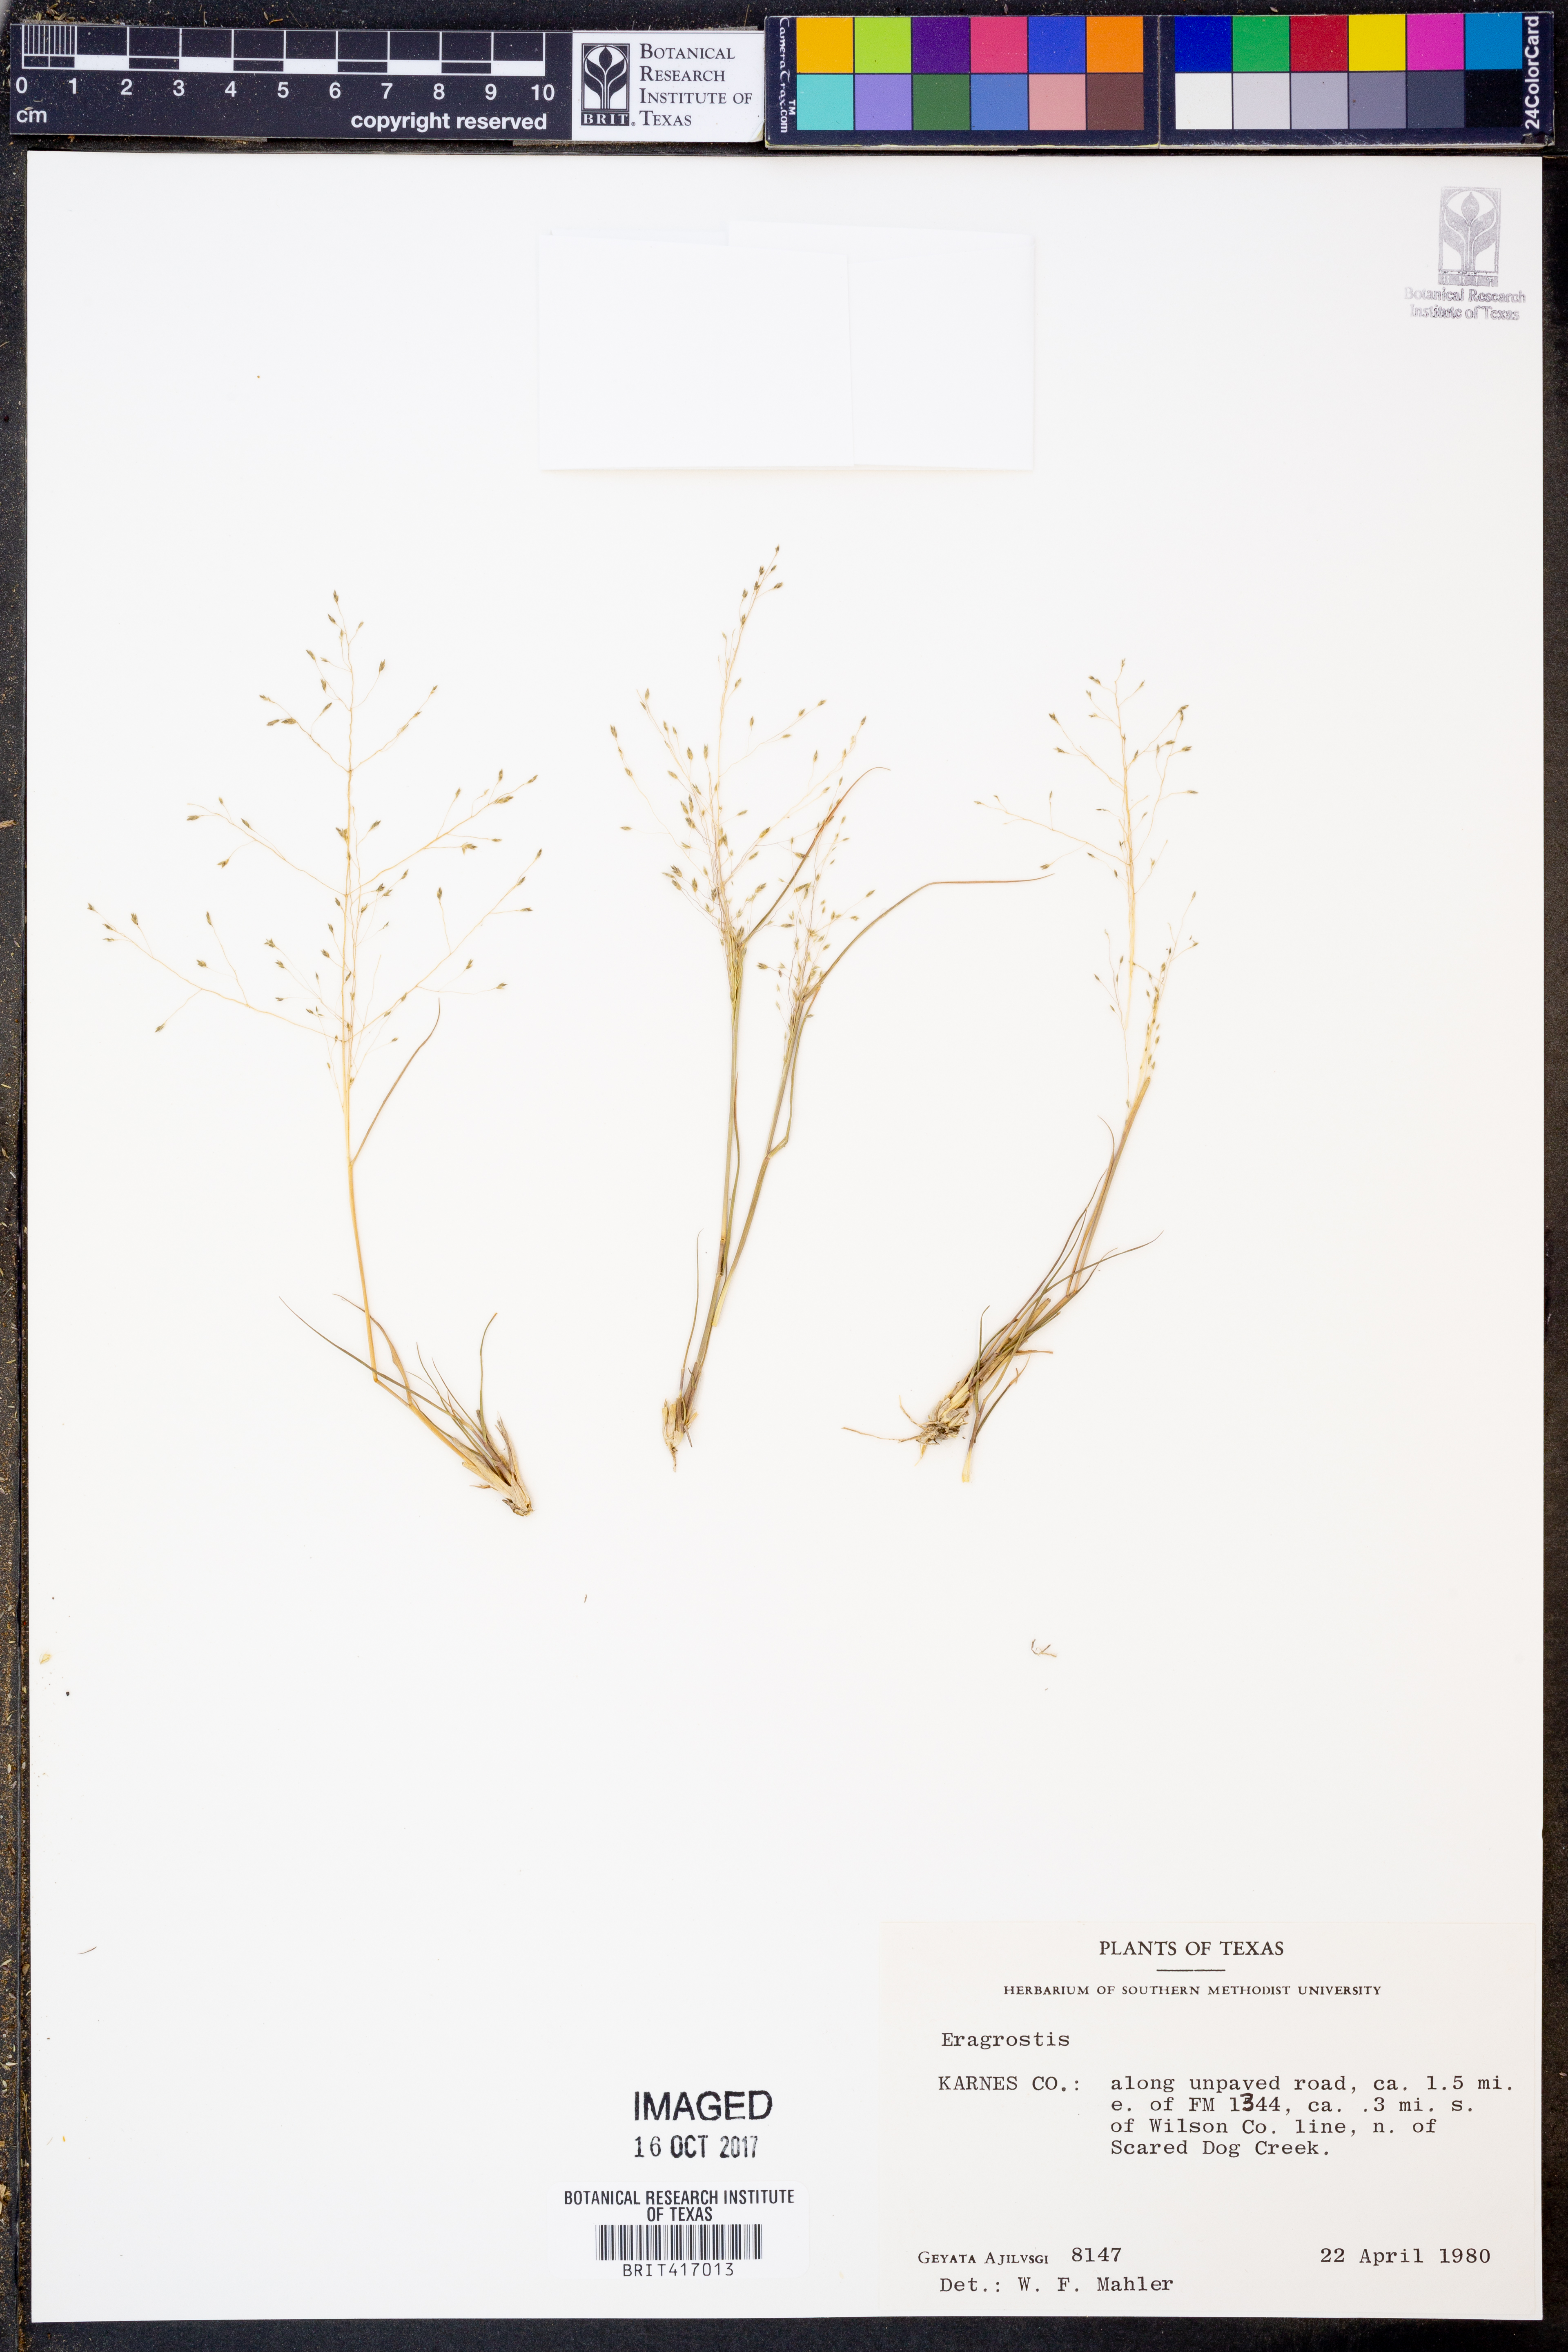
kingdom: Plantae
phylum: Tracheophyta
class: Liliopsida
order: Poales
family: Poaceae
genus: Eragrostis
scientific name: Eragrostis
